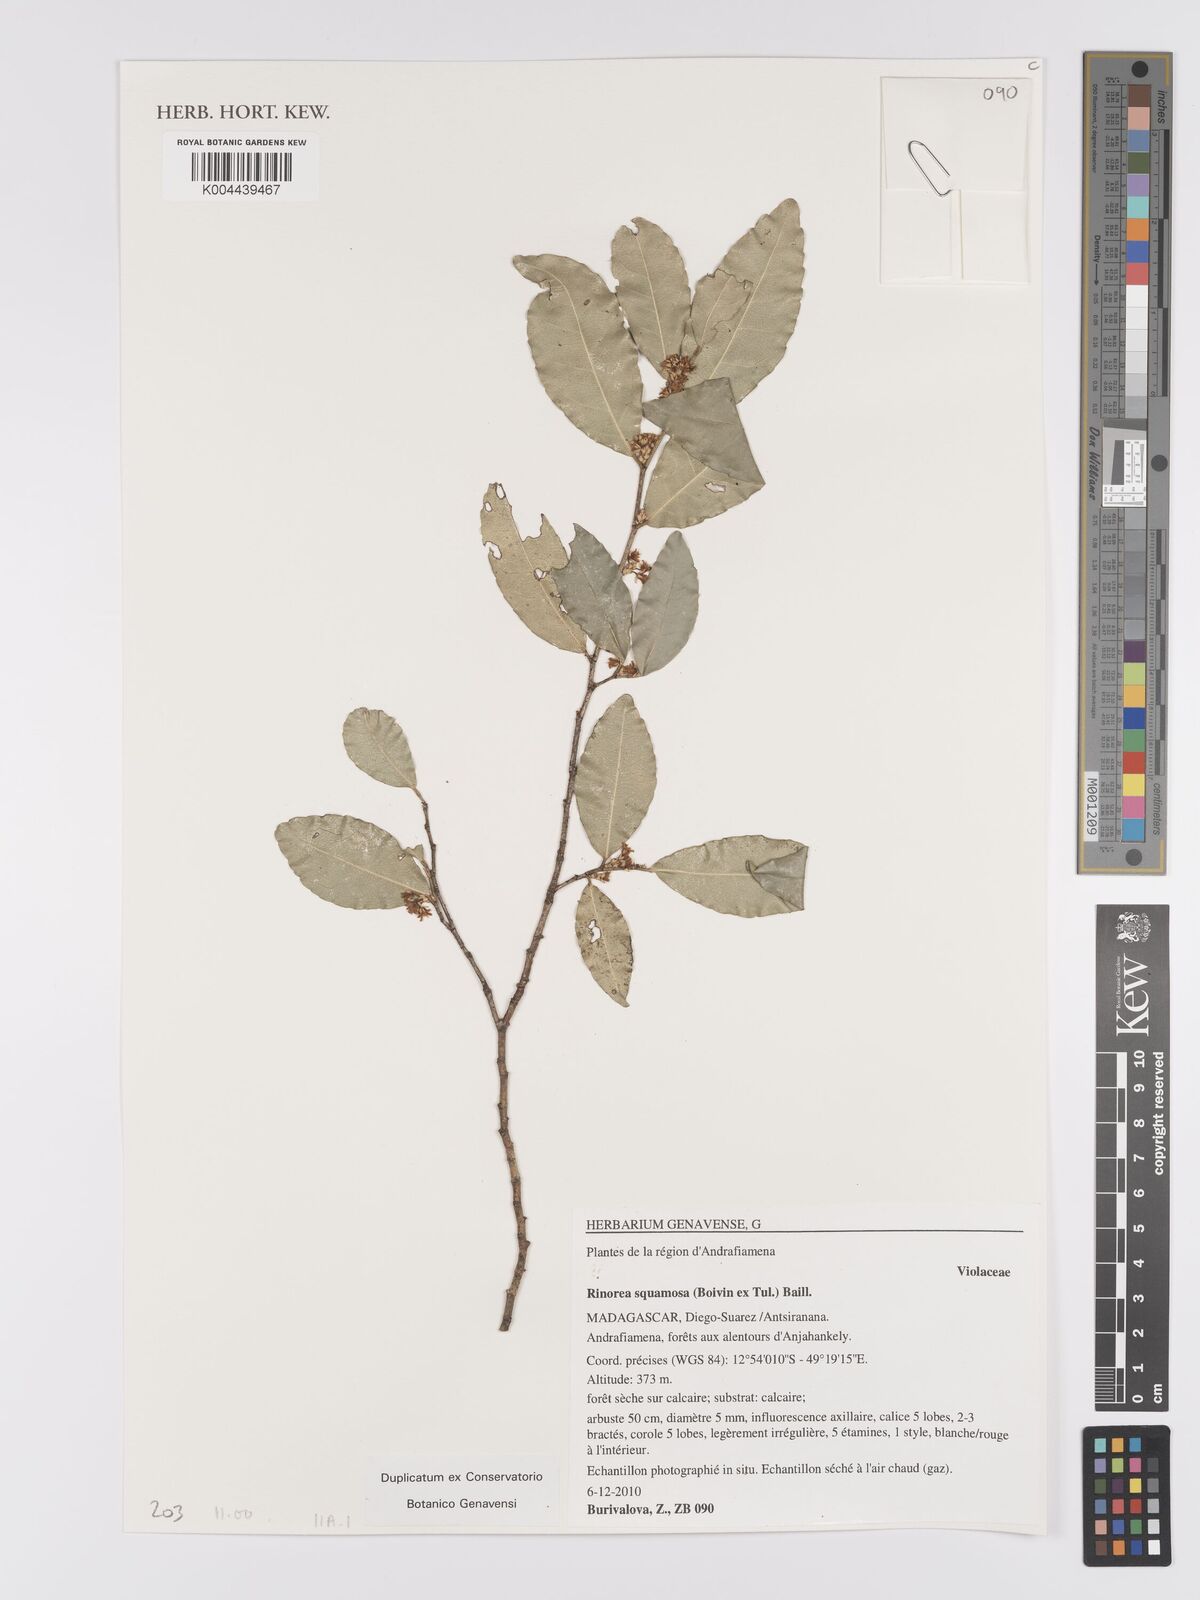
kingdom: Plantae
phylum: Tracheophyta
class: Magnoliopsida
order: Malpighiales
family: Violaceae
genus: Rinorea
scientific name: Rinorea squamosa
